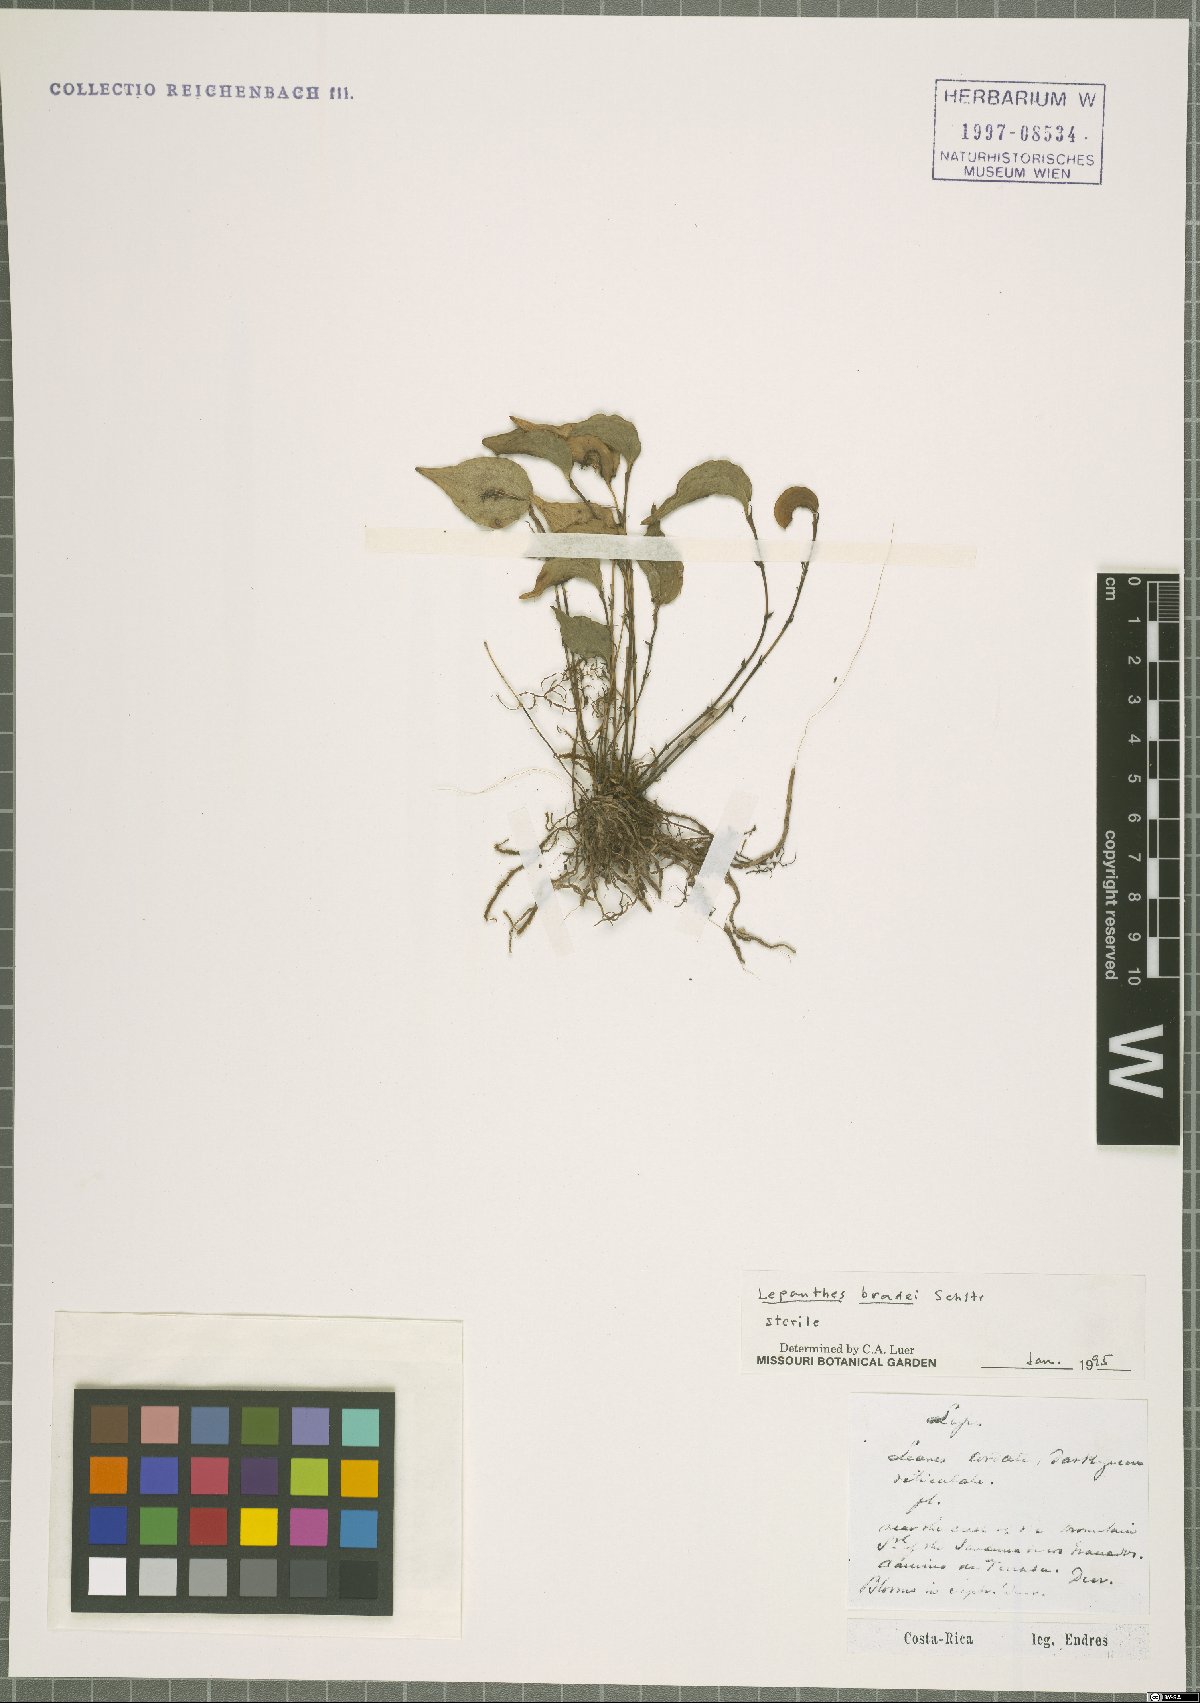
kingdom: Plantae
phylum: Tracheophyta
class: Liliopsida
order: Asparagales
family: Orchidaceae
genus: Lepanthes
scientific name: Lepanthes bradei
